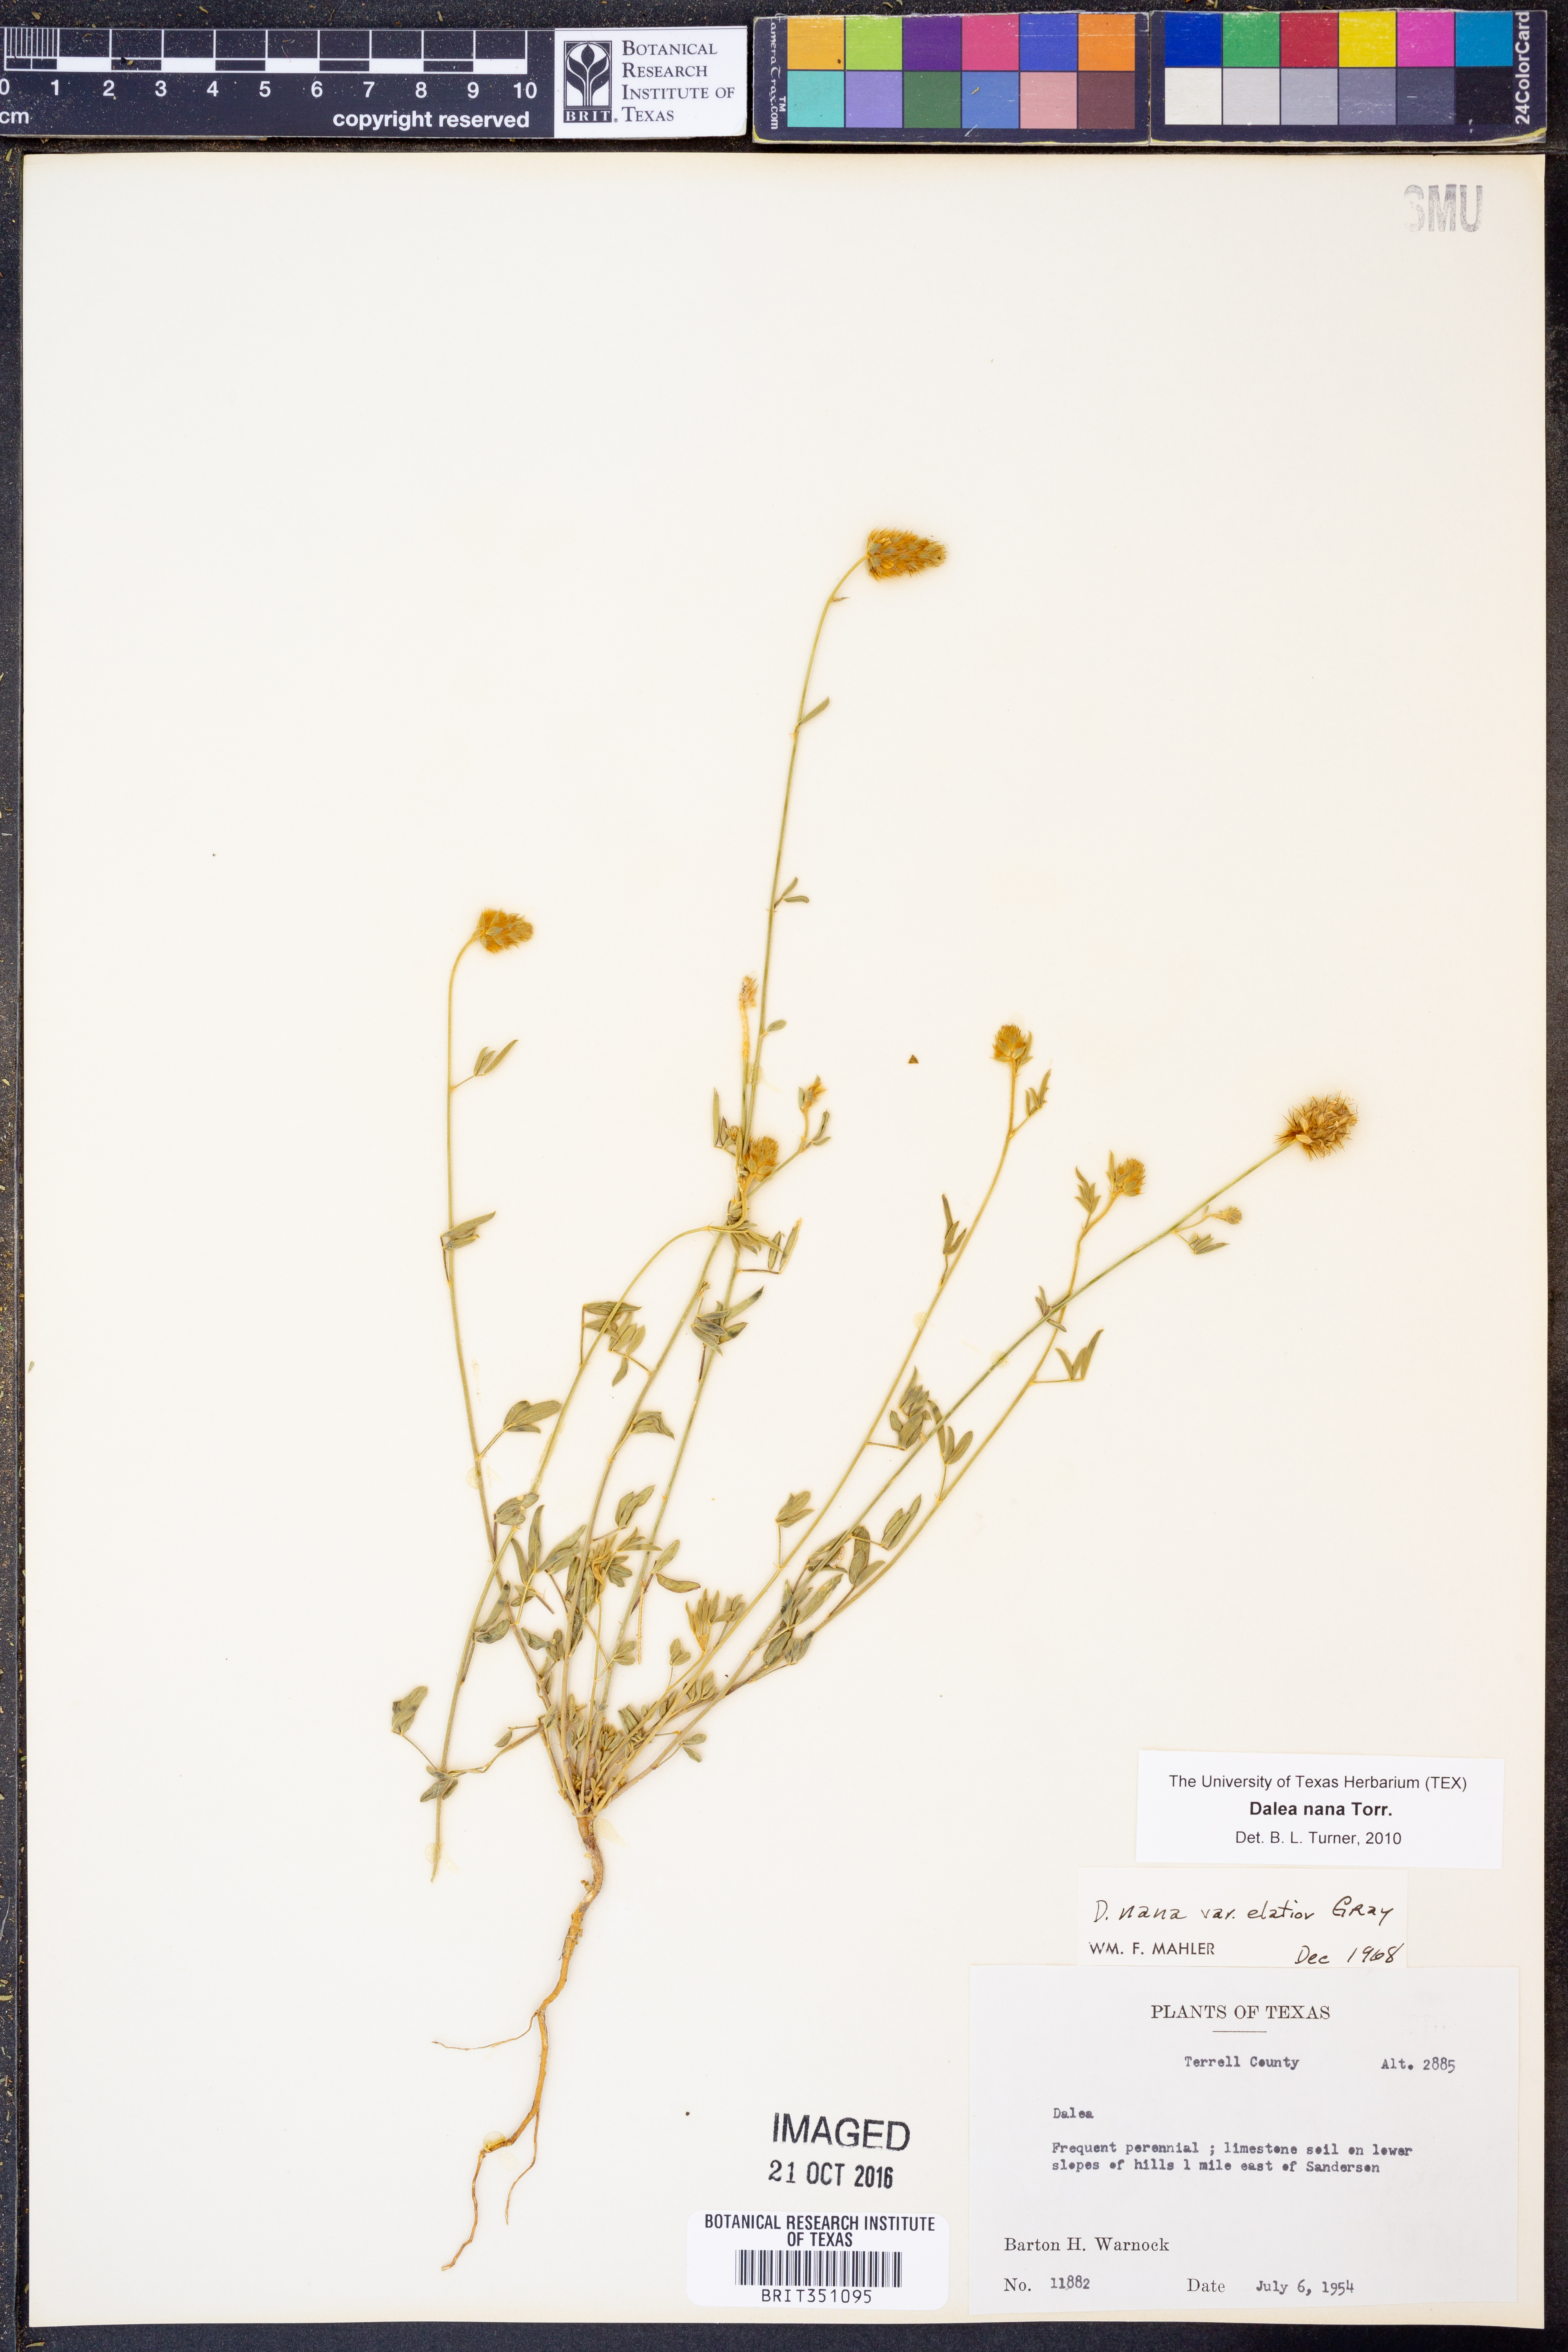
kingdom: Plantae
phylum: Tracheophyta
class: Magnoliopsida
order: Fabales
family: Fabaceae
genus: Dalea
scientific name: Dalea nana
